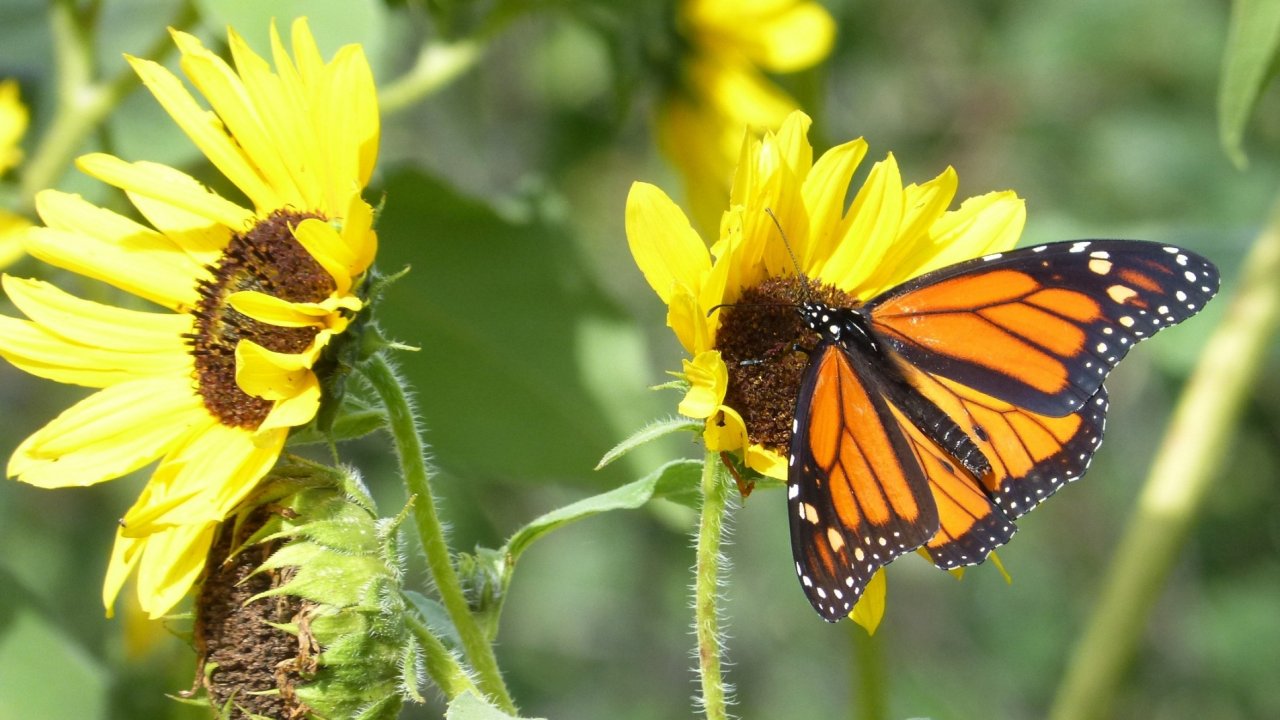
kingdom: Animalia
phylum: Arthropoda
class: Insecta
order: Lepidoptera
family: Nymphalidae
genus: Danaus
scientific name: Danaus plexippus
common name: Monarch
